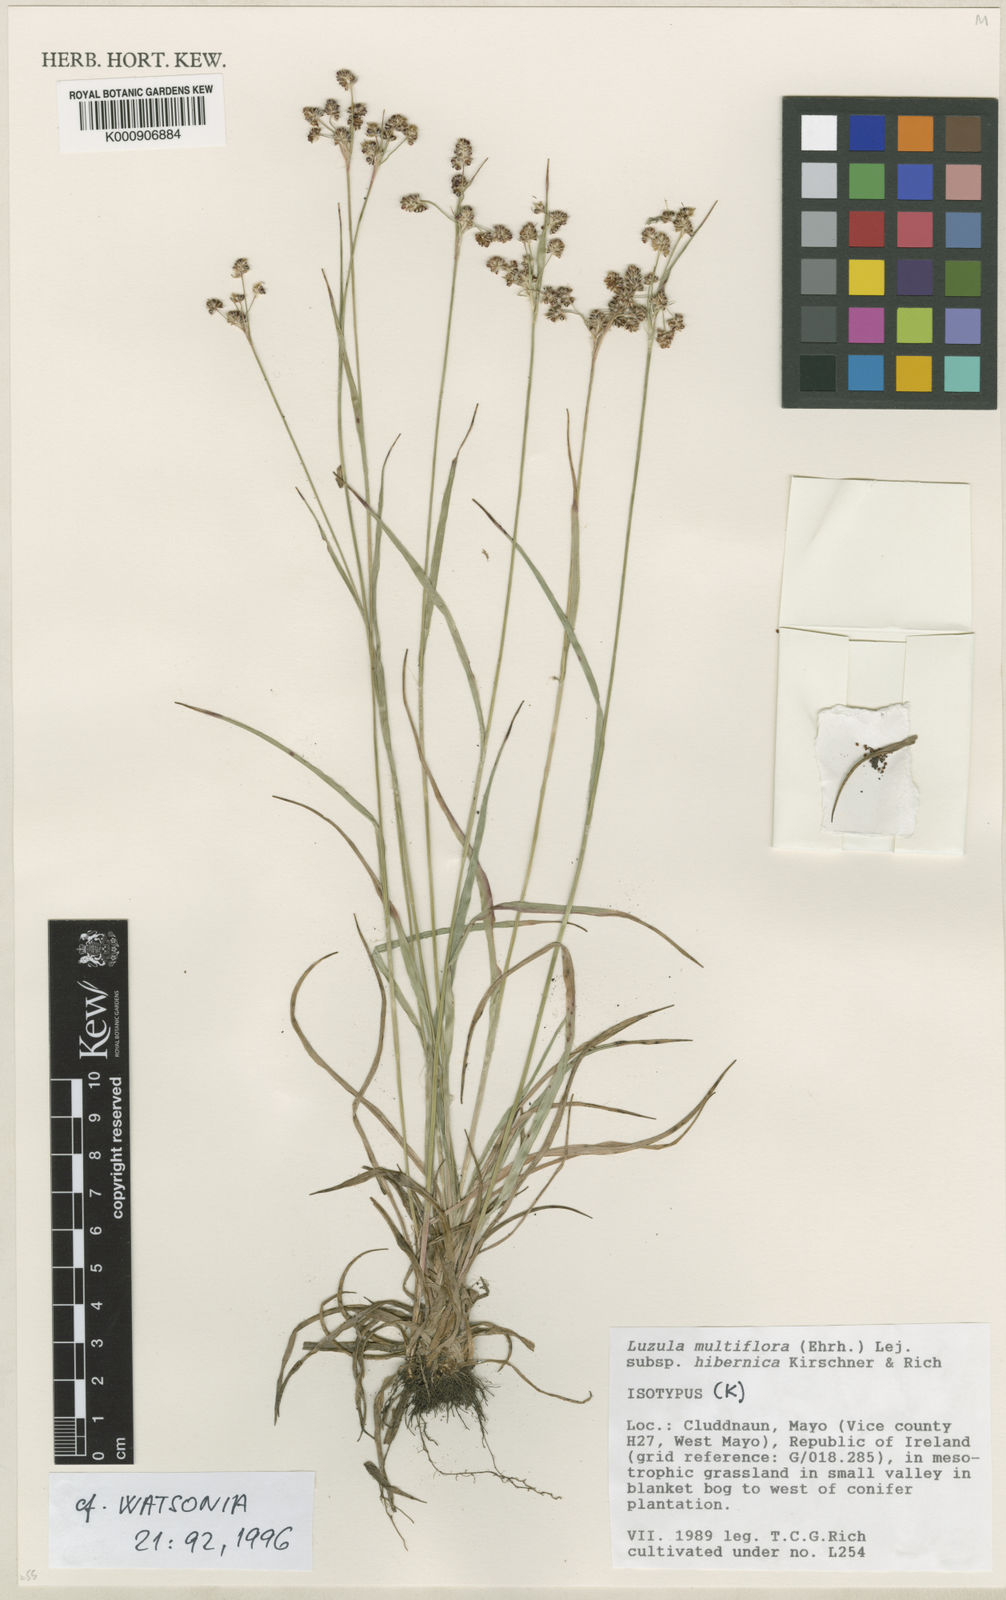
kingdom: Plantae
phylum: Tracheophyta
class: Liliopsida
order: Poales
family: Juncaceae
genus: Luzula
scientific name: Luzula multiflora
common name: Heath wood-rush
